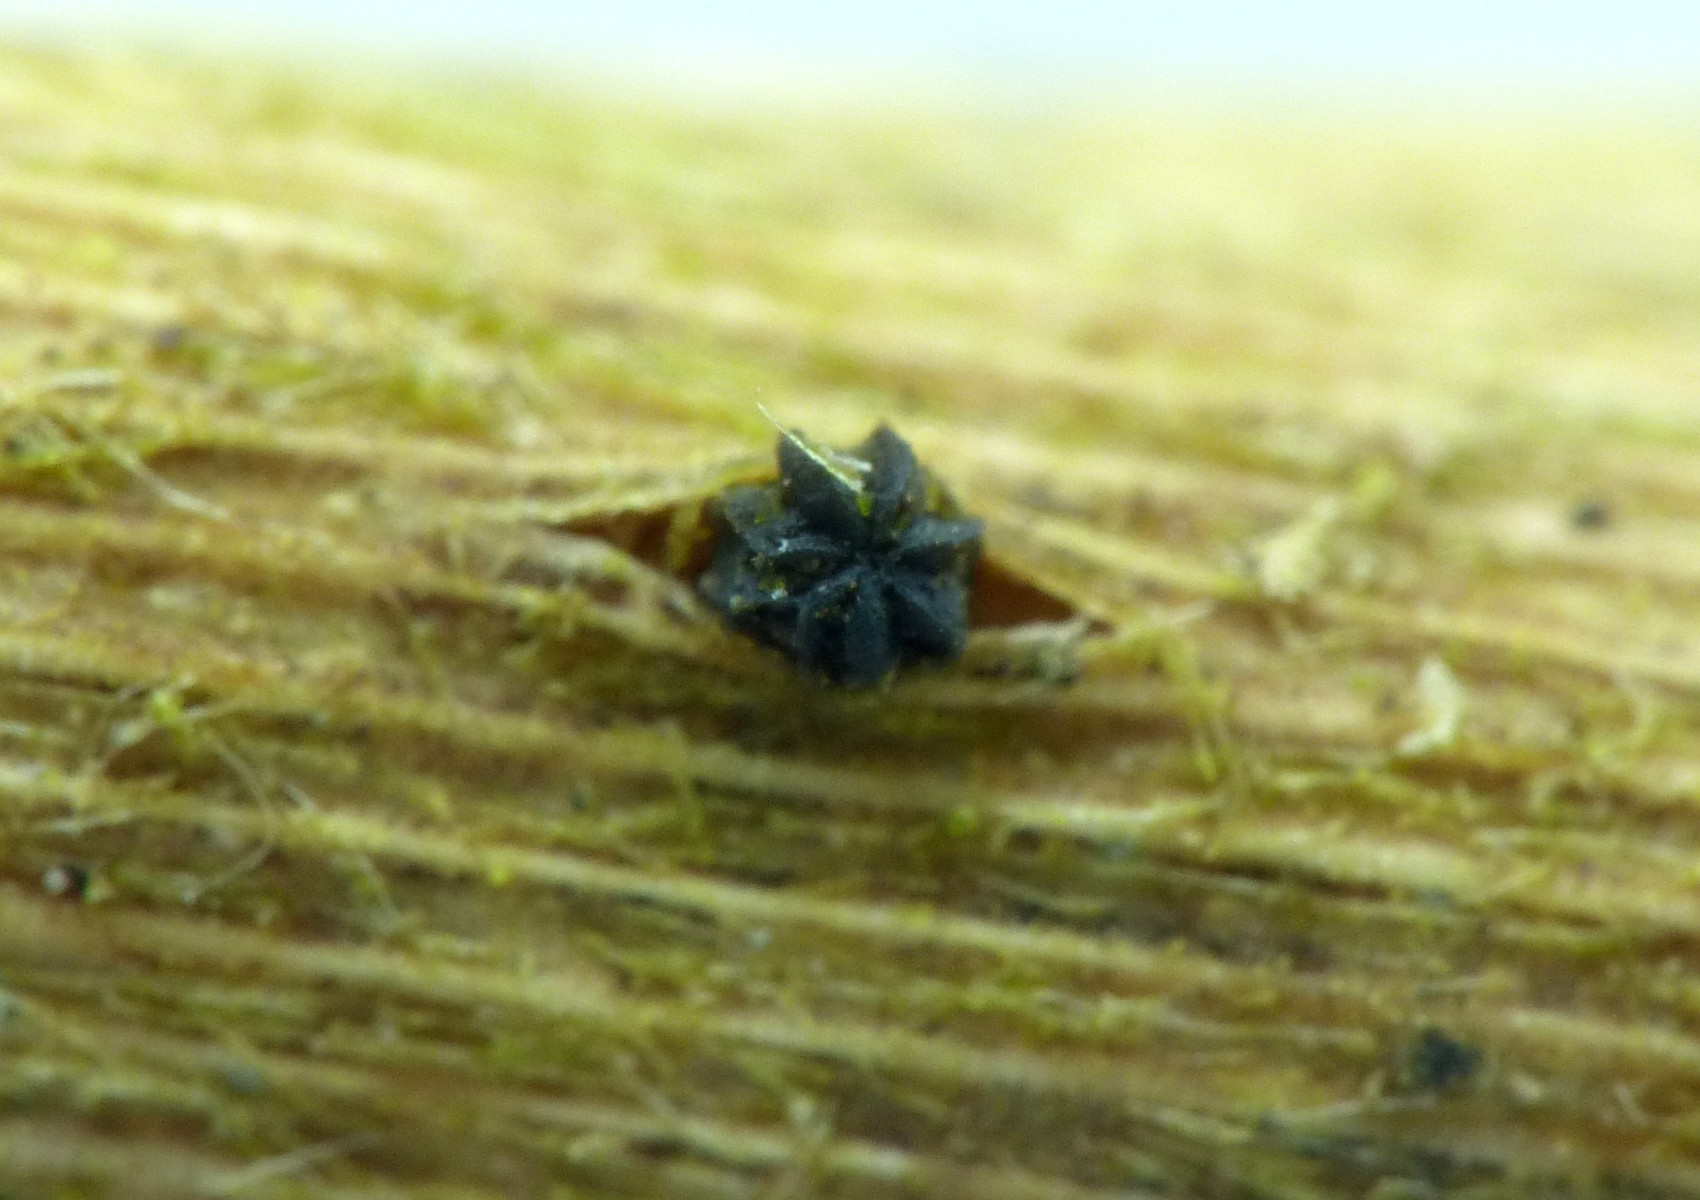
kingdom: Fungi
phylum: Ascomycota
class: Leotiomycetes
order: Helotiales
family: Godroniaceae
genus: Godronia
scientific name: Godronia muehlenbeckii
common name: tagrør-urneskive
